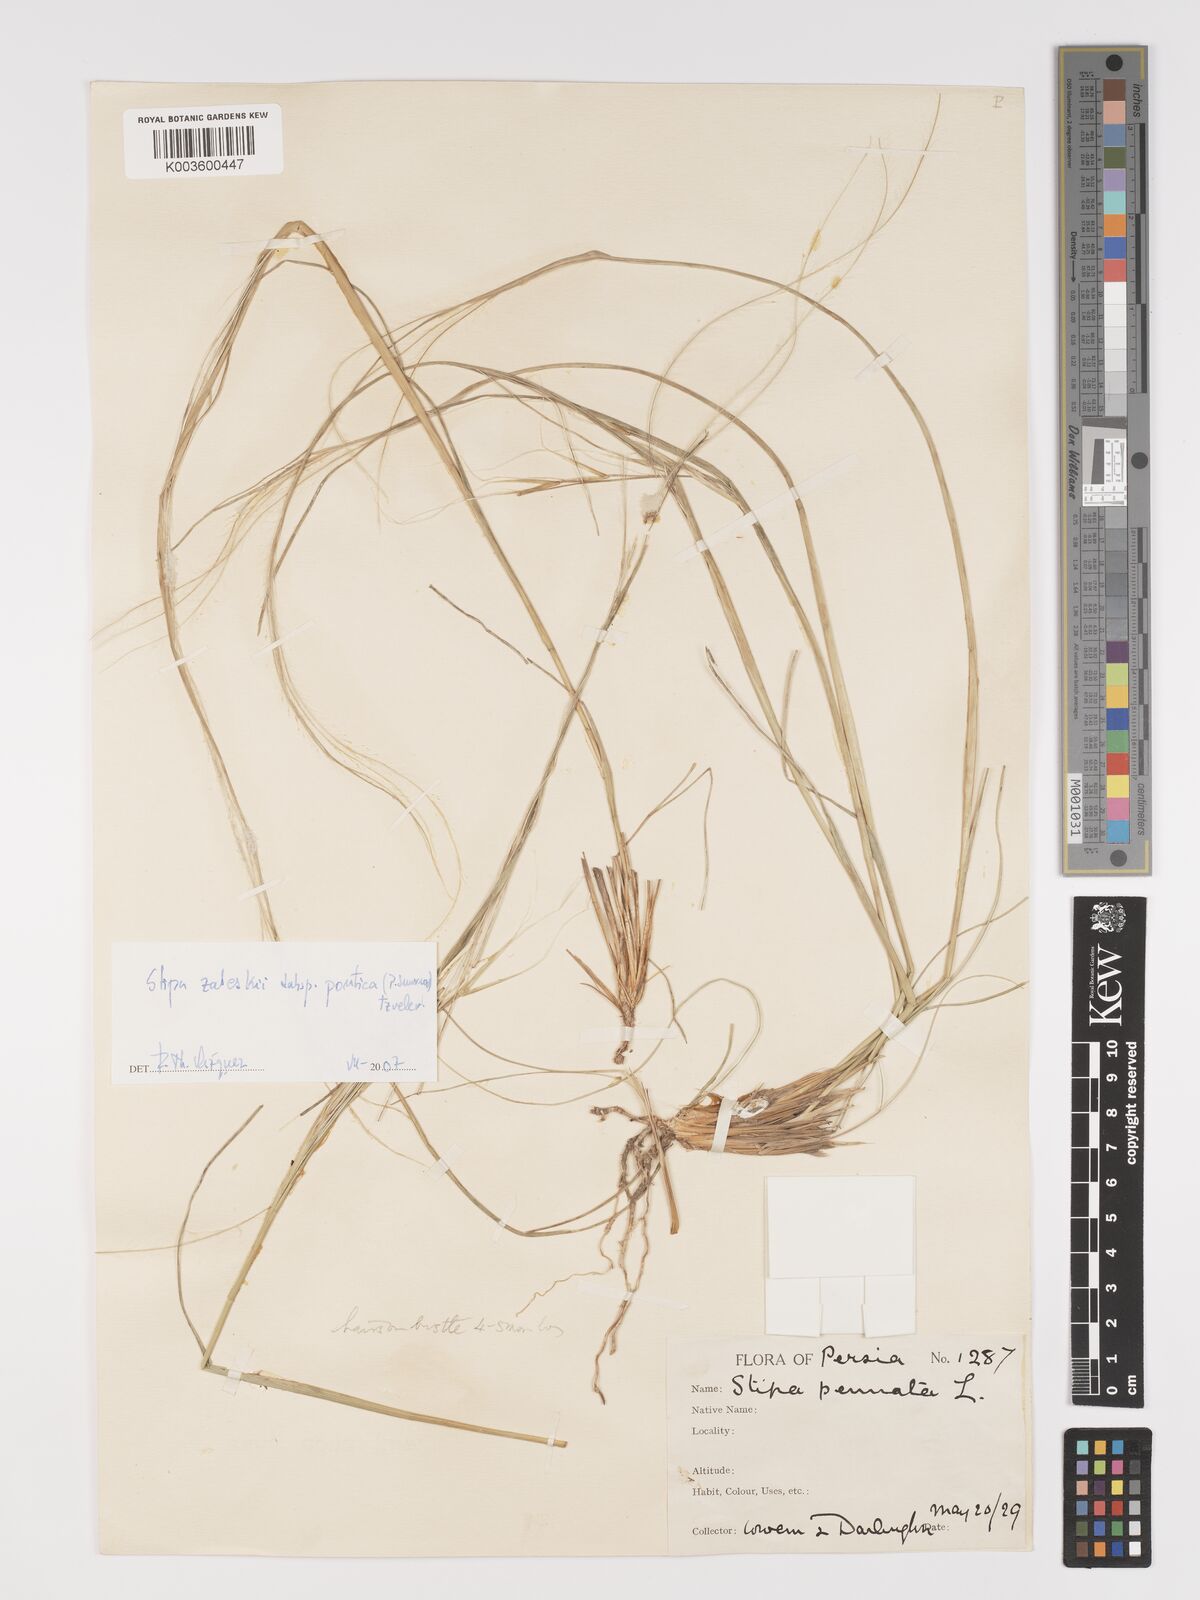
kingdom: Plantae
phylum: Tracheophyta
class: Liliopsida
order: Poales
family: Poaceae
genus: Stipa
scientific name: Stipa zalesskyi
